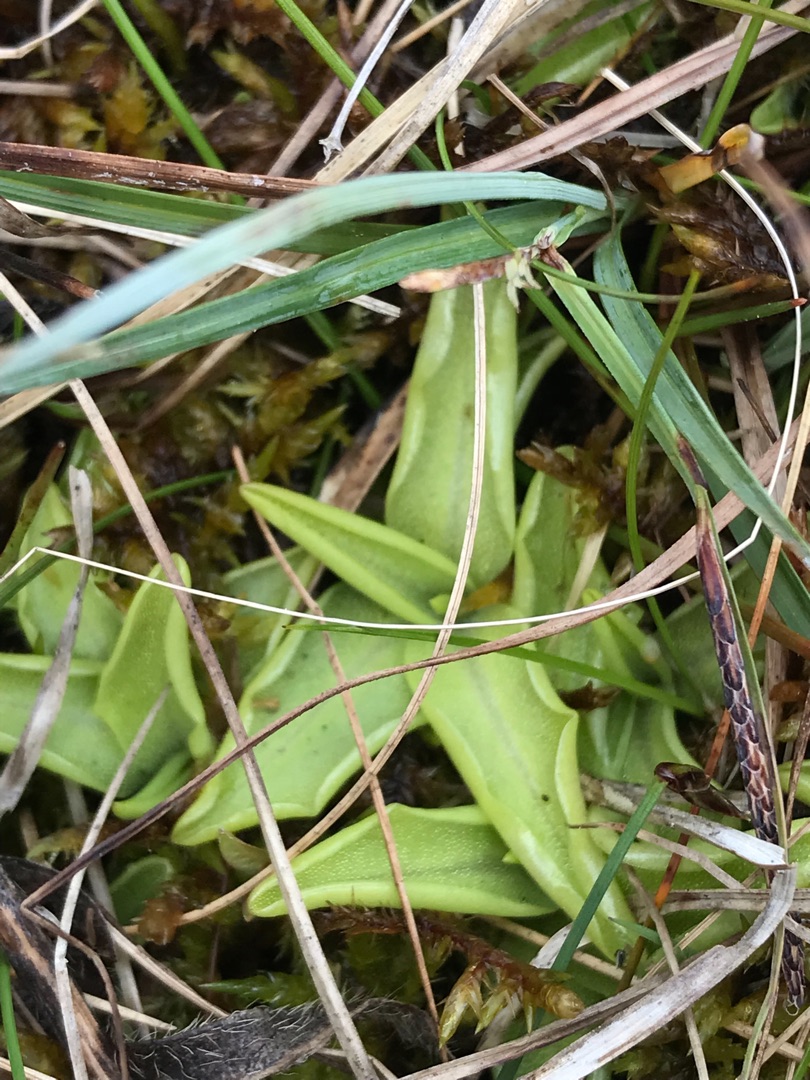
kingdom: Plantae
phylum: Tracheophyta
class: Magnoliopsida
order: Lamiales
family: Lentibulariaceae
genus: Pinguicula
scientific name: Pinguicula vulgaris
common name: Vibefedt
